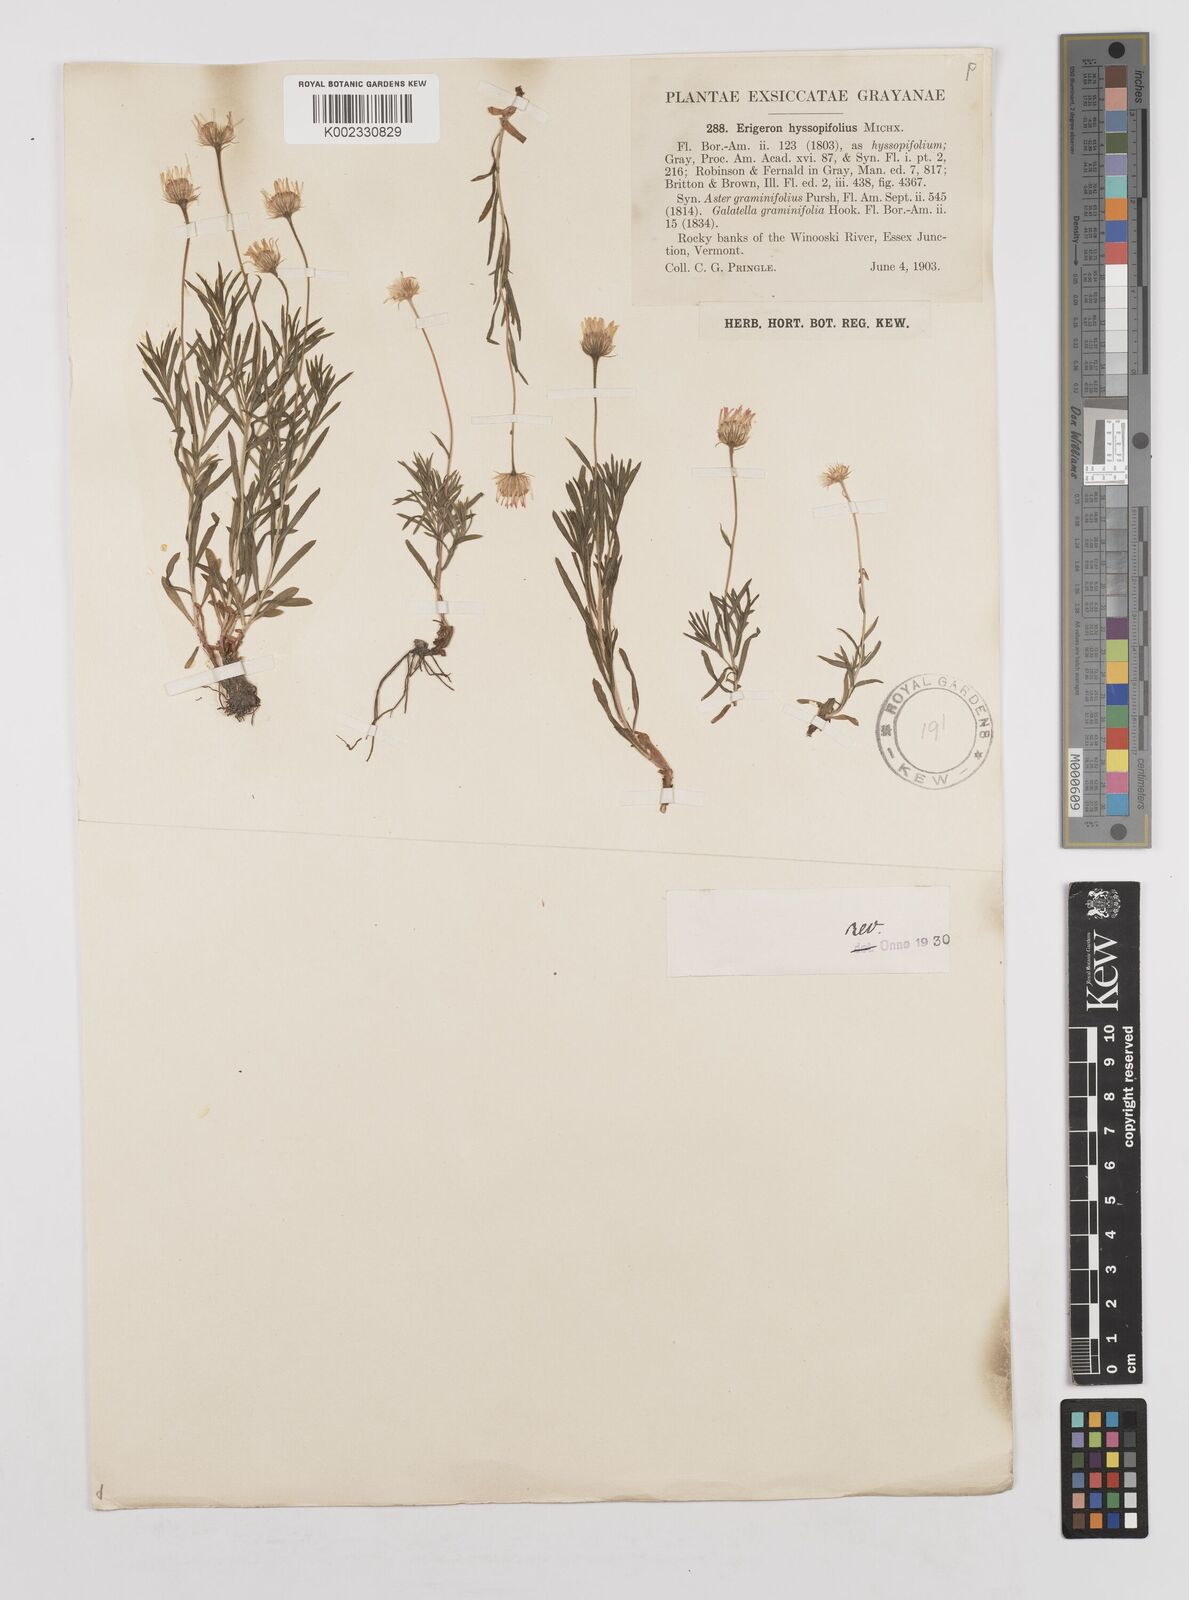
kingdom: Plantae
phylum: Tracheophyta
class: Magnoliopsida
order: Asterales
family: Asteraceae
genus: Erigeron
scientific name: Erigeron hyssopifolius
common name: Daisy fleabane
